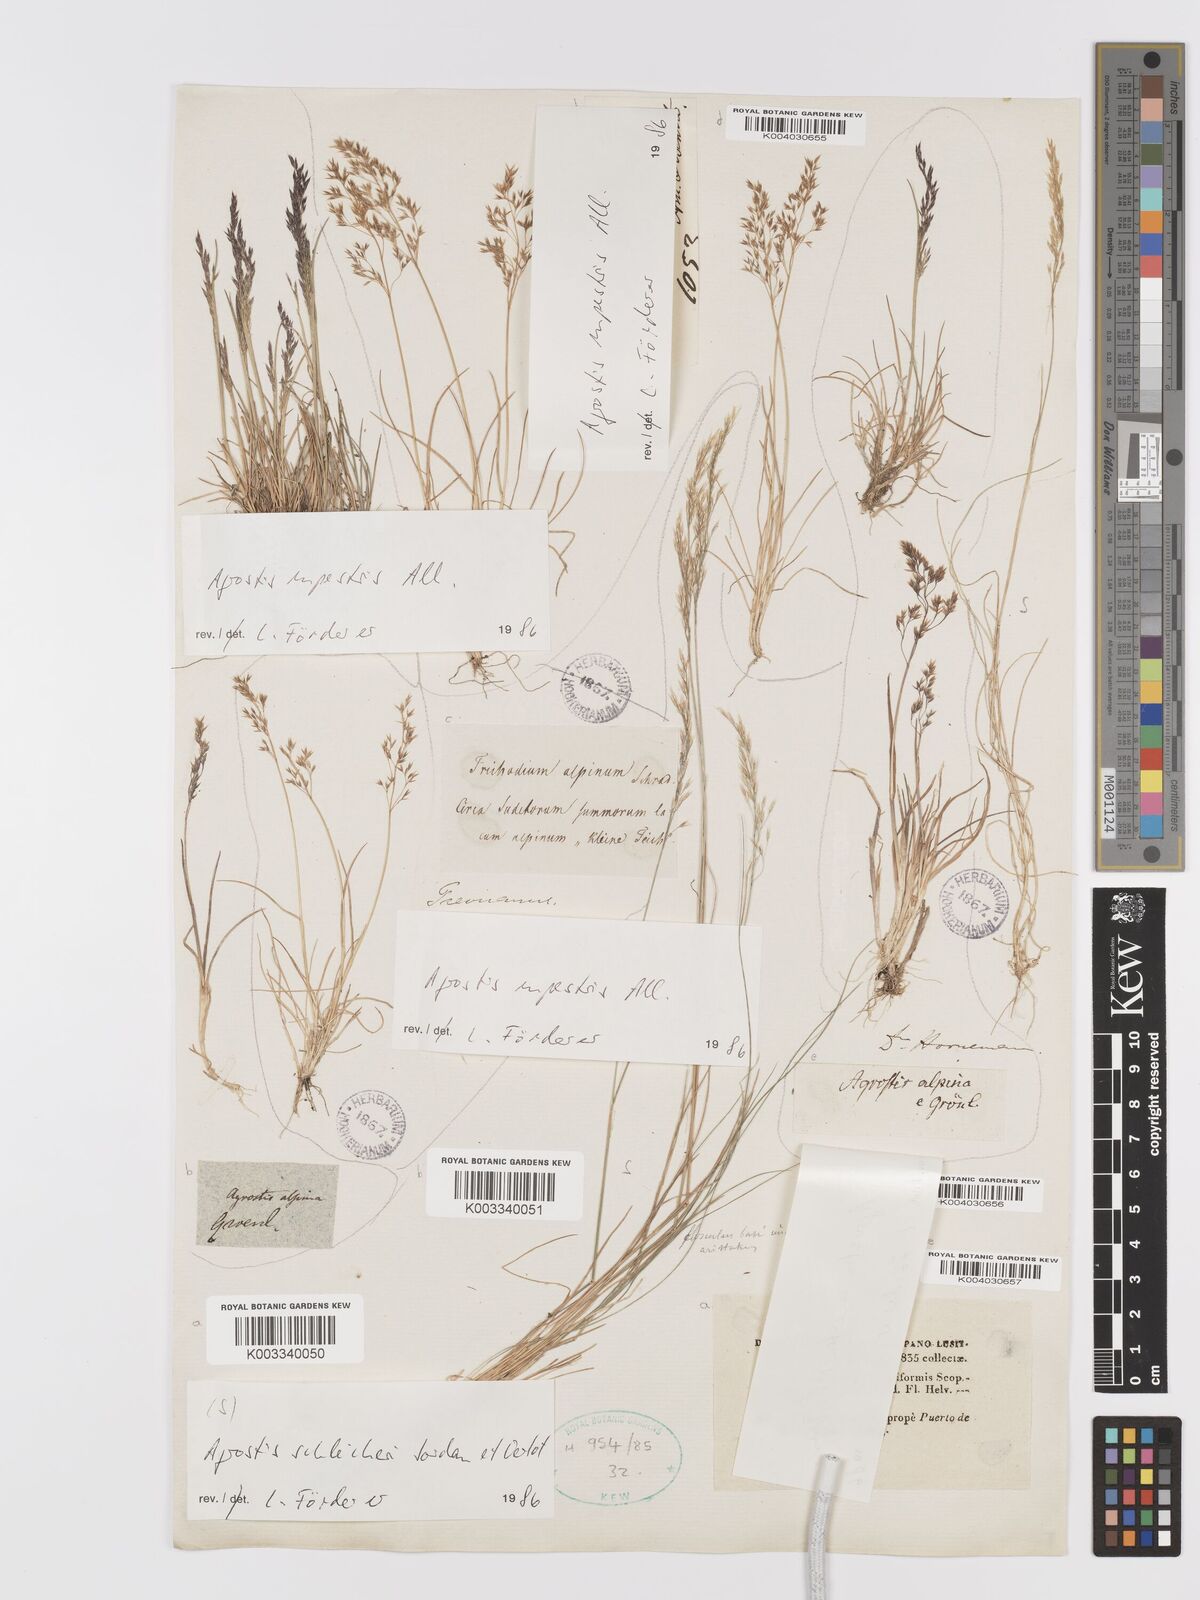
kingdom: Plantae
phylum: Tracheophyta
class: Liliopsida
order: Poales
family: Poaceae
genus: Alpagrostis
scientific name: Alpagrostis schleicheri
